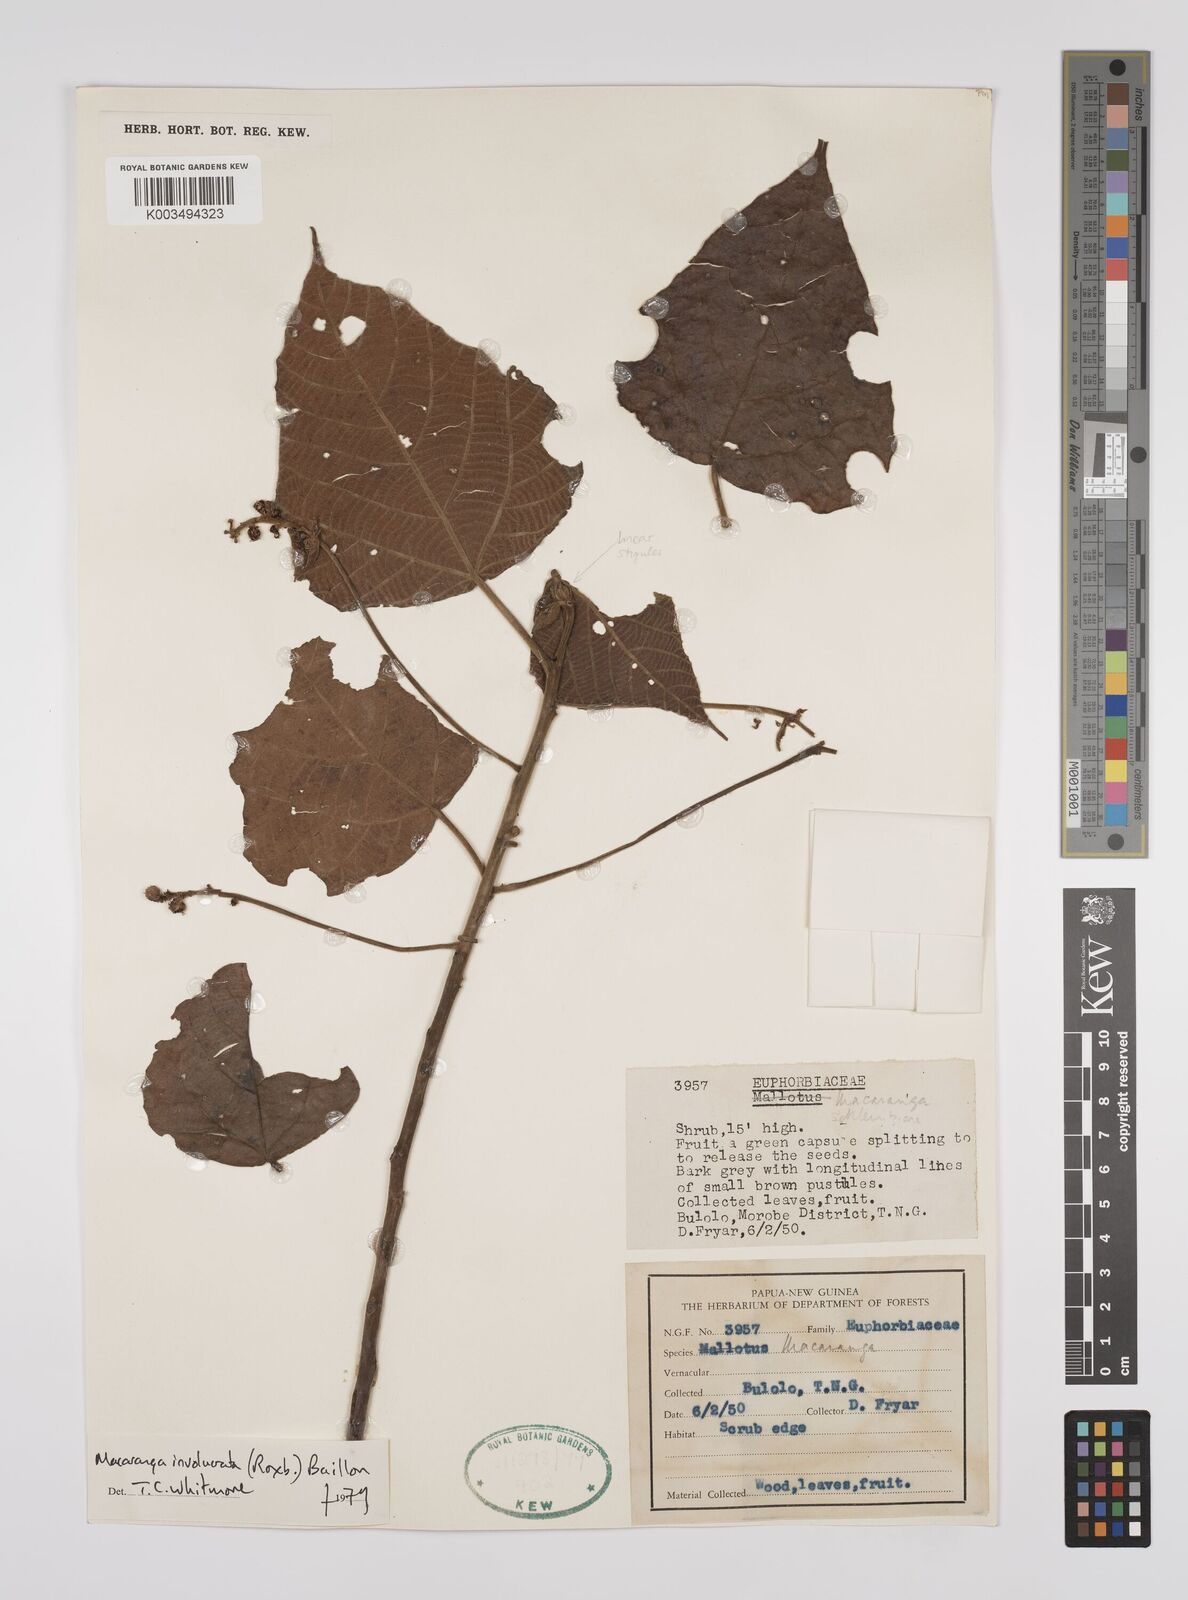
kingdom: Plantae
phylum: Tracheophyta
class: Magnoliopsida
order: Malpighiales
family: Euphorbiaceae
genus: Macaranga
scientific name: Macaranga involucrata
